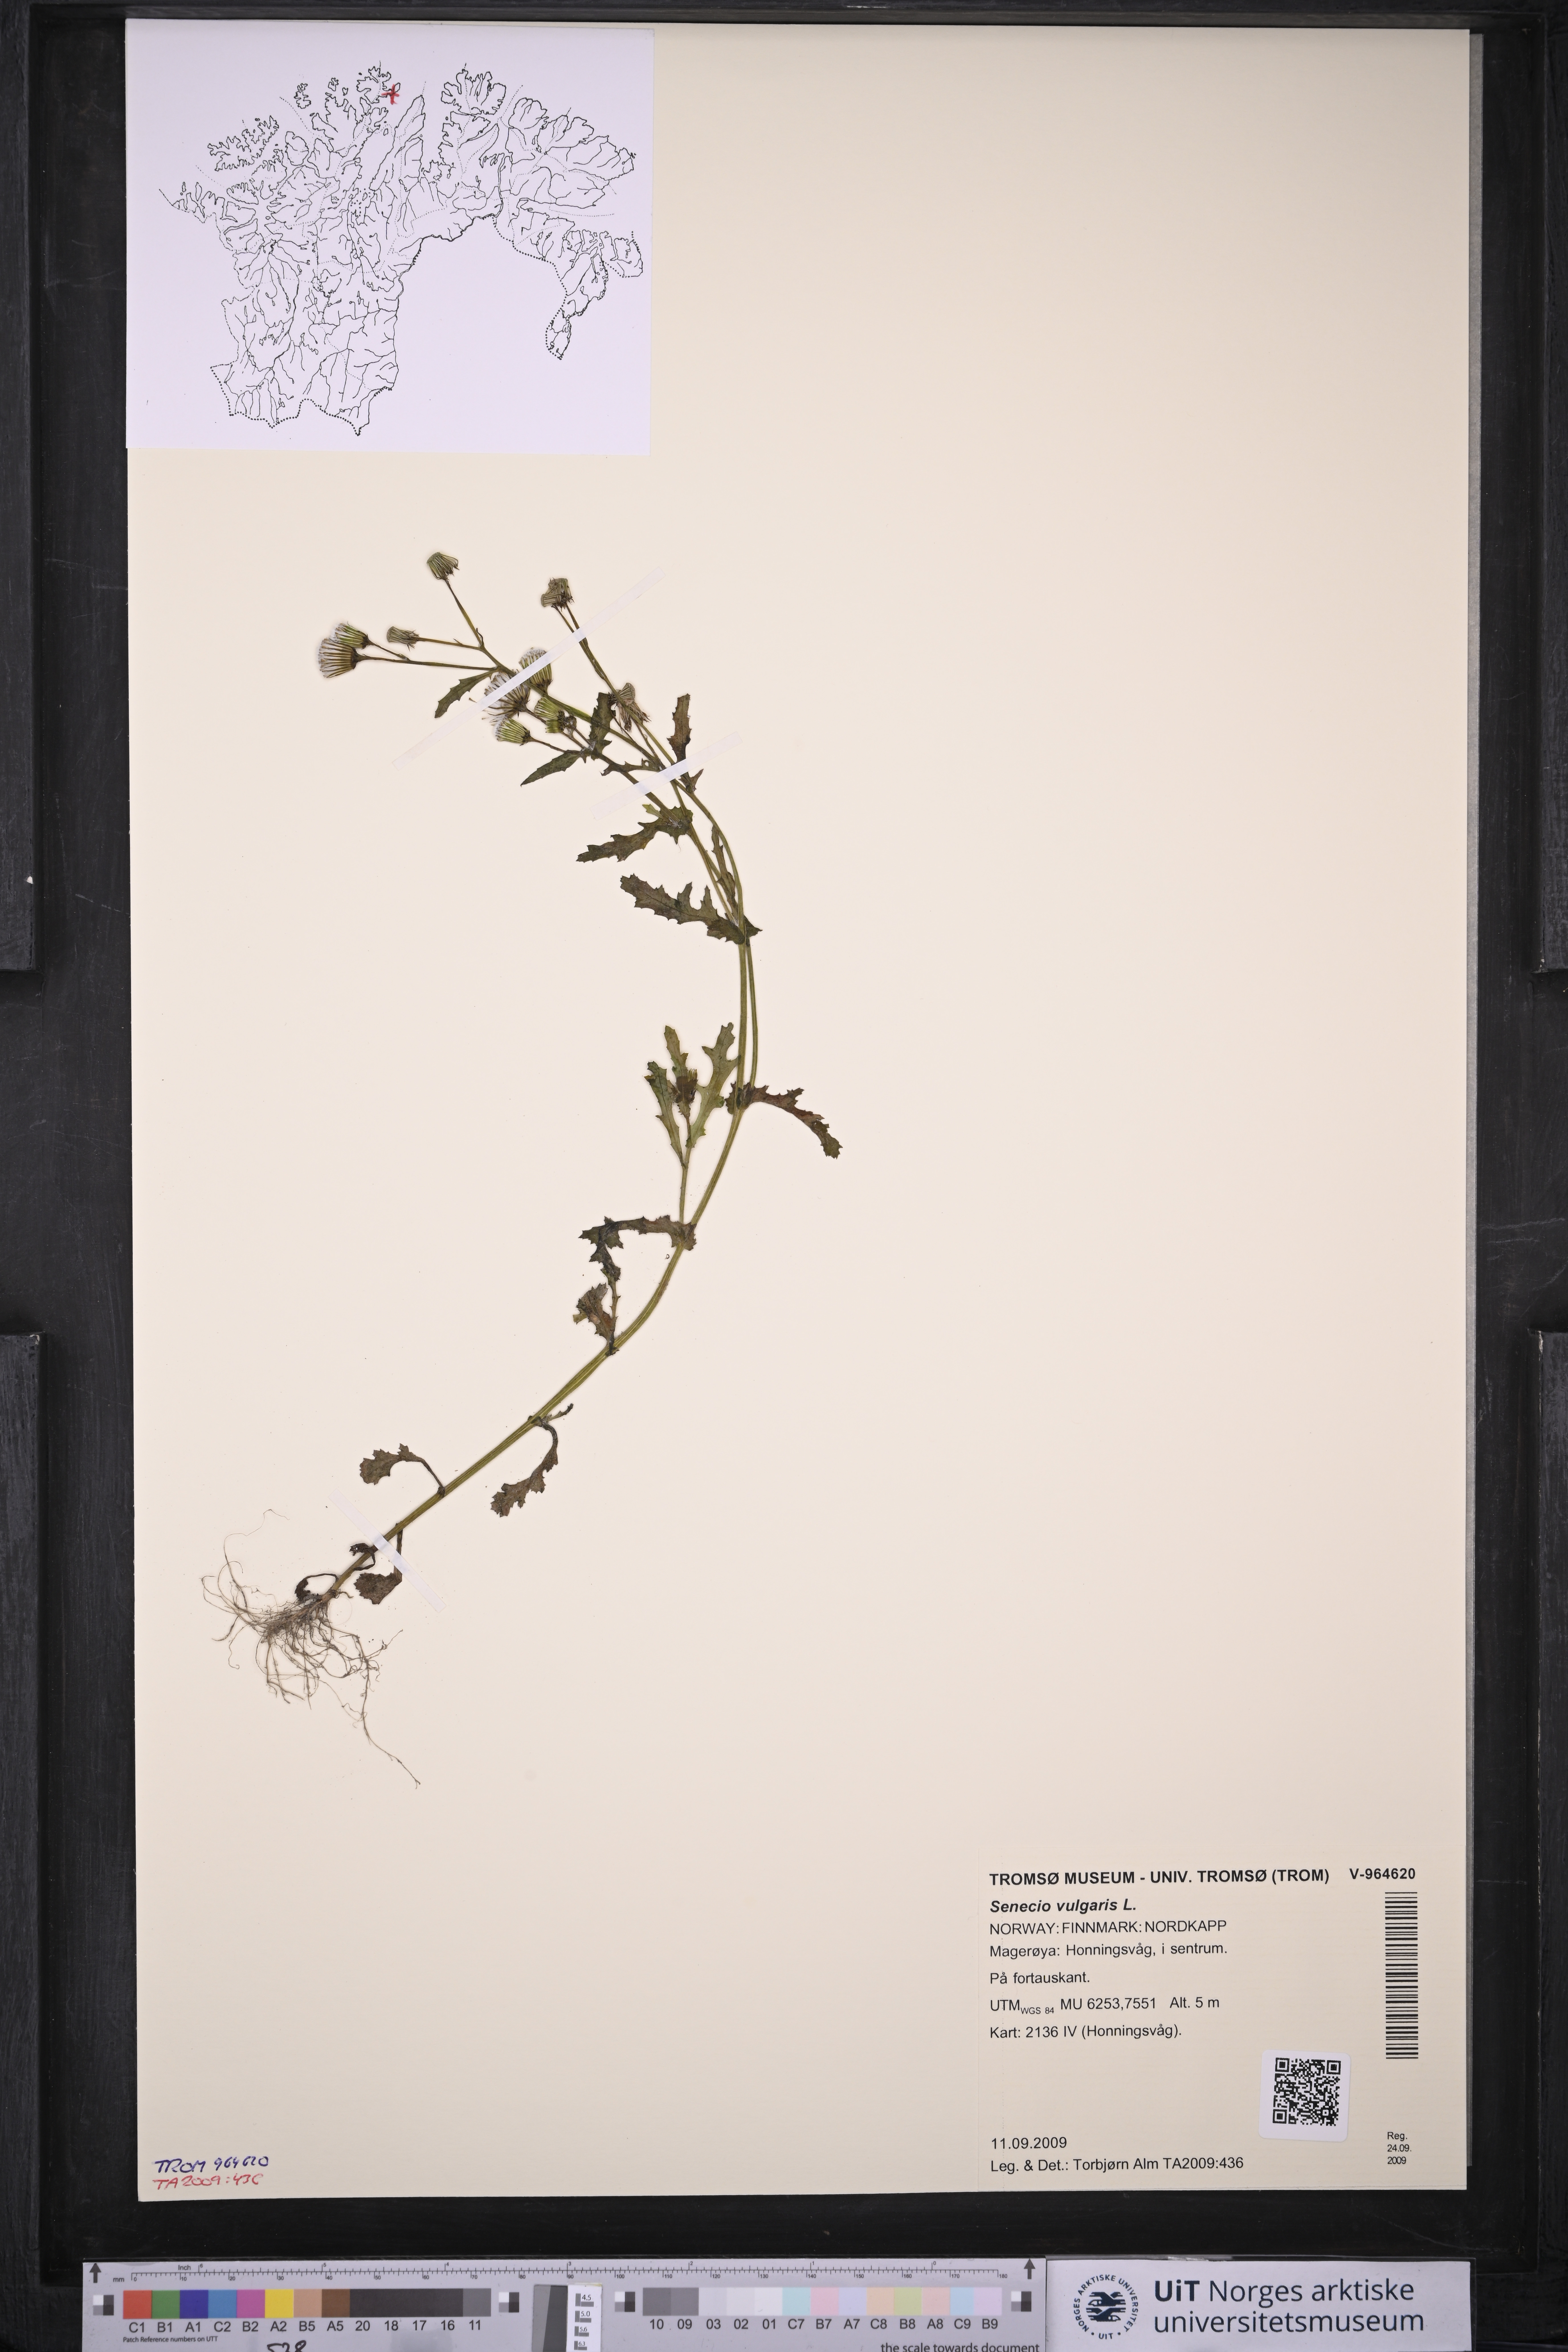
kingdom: Plantae
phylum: Tracheophyta
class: Magnoliopsida
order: Asterales
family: Asteraceae
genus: Senecio
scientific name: Senecio vulgaris
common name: Old-man-in-the-spring
